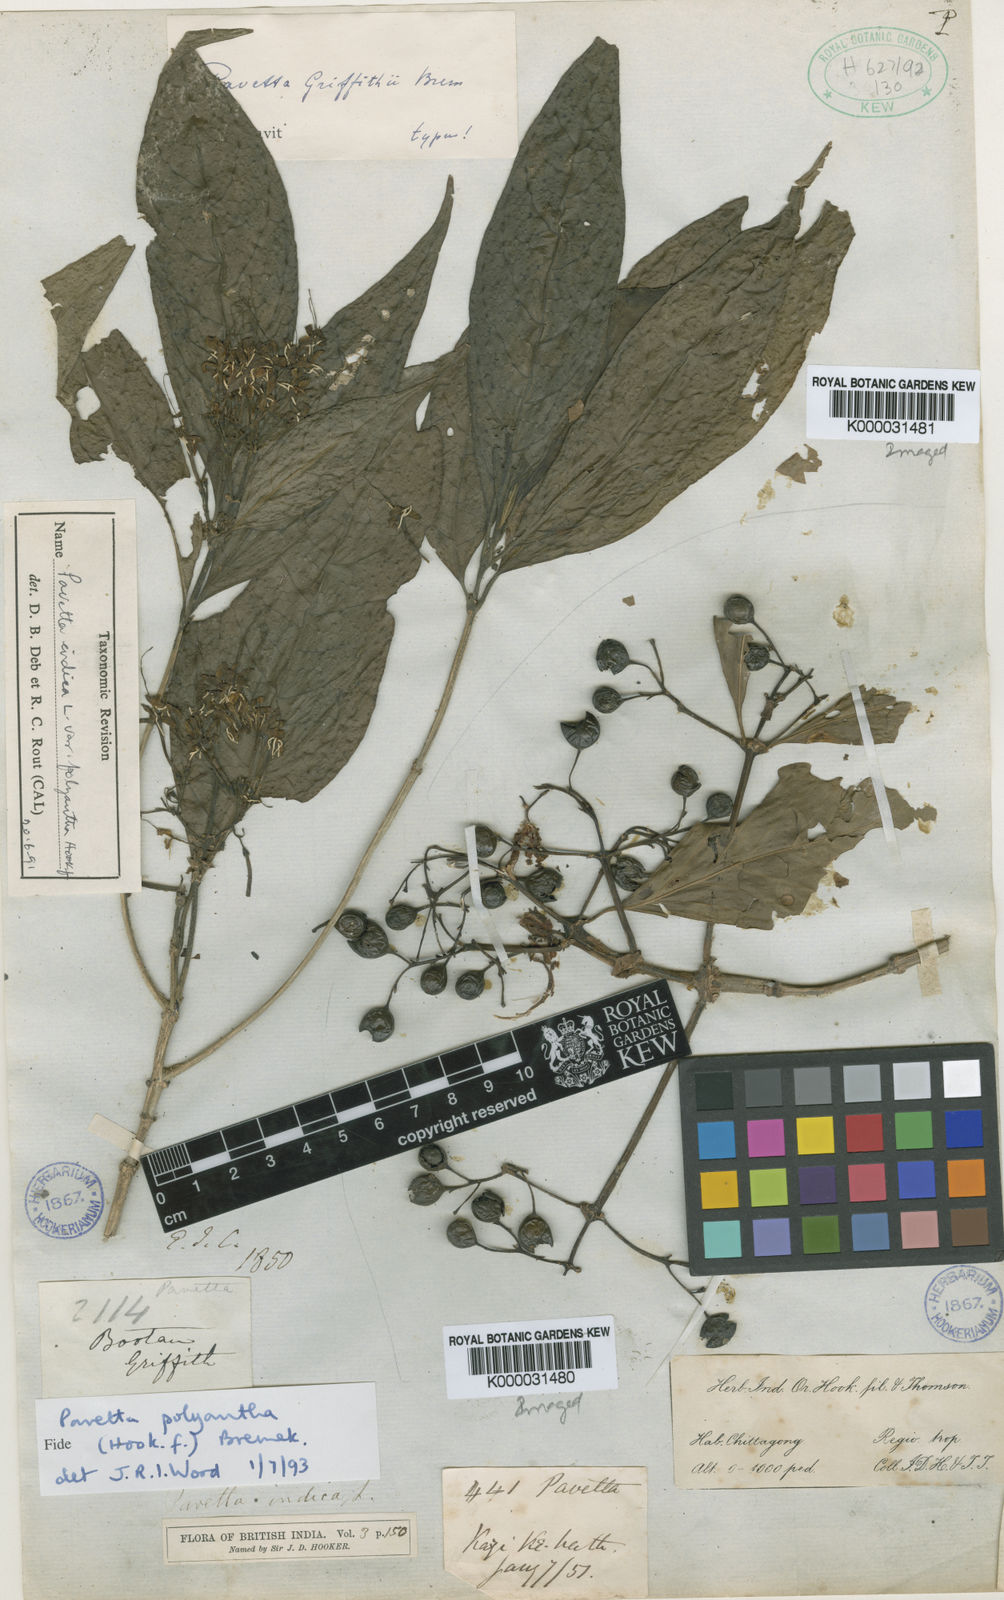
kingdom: Plantae
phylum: Tracheophyta
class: Magnoliopsida
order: Gentianales
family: Rubiaceae
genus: Pavetta
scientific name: Pavetta tomentosa
